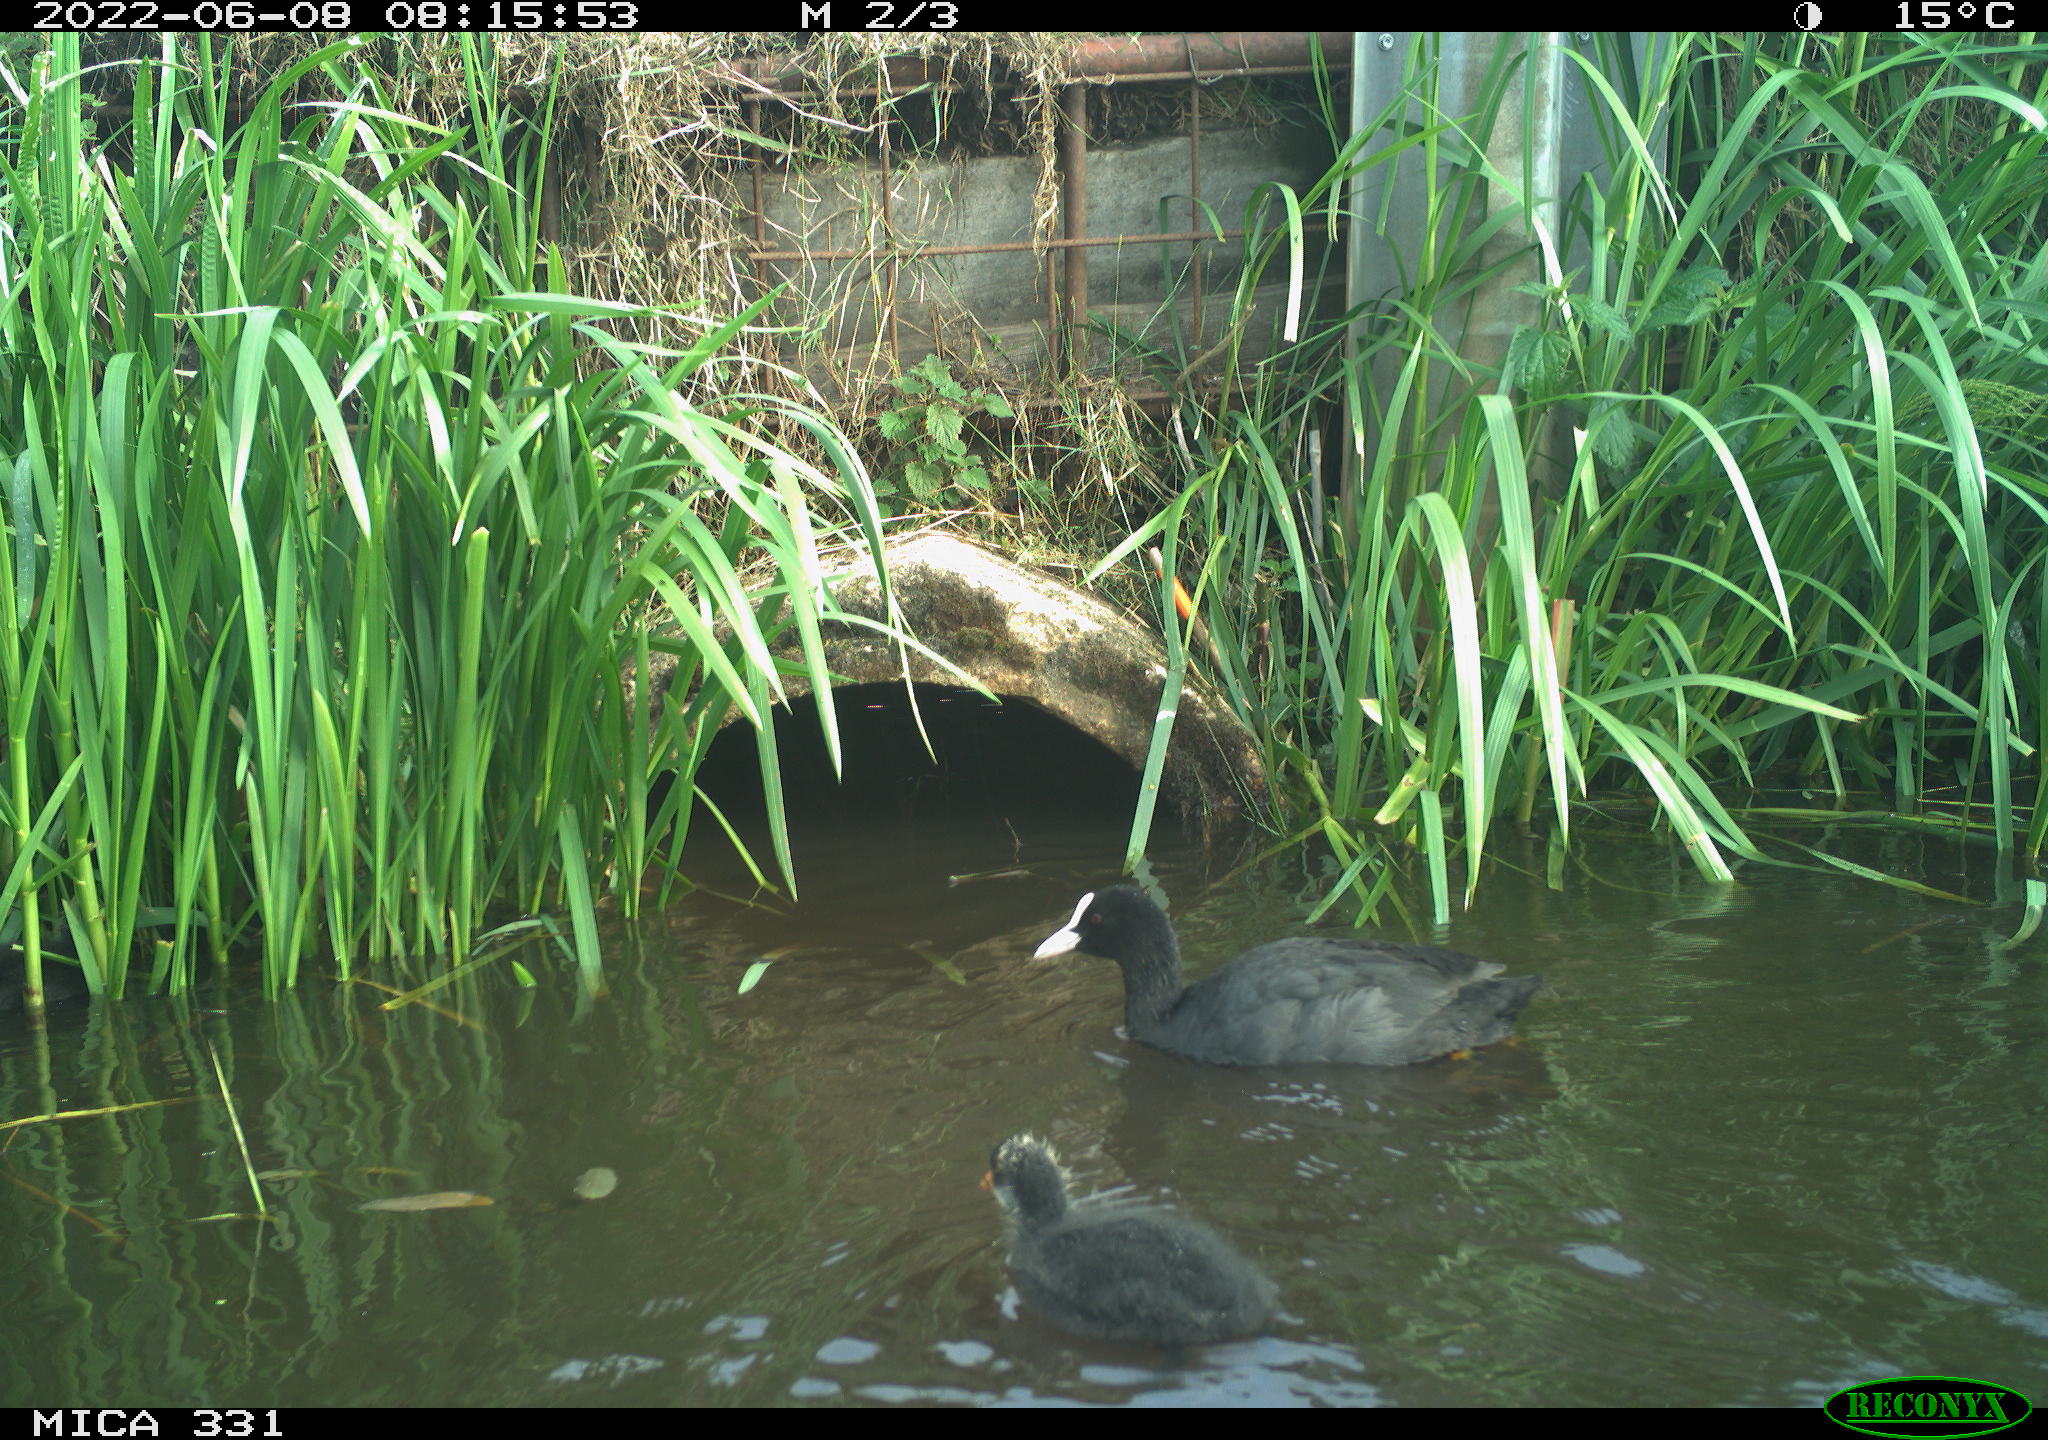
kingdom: Animalia
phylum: Chordata
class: Aves
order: Gruiformes
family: Rallidae
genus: Fulica
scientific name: Fulica atra
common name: Eurasian coot
